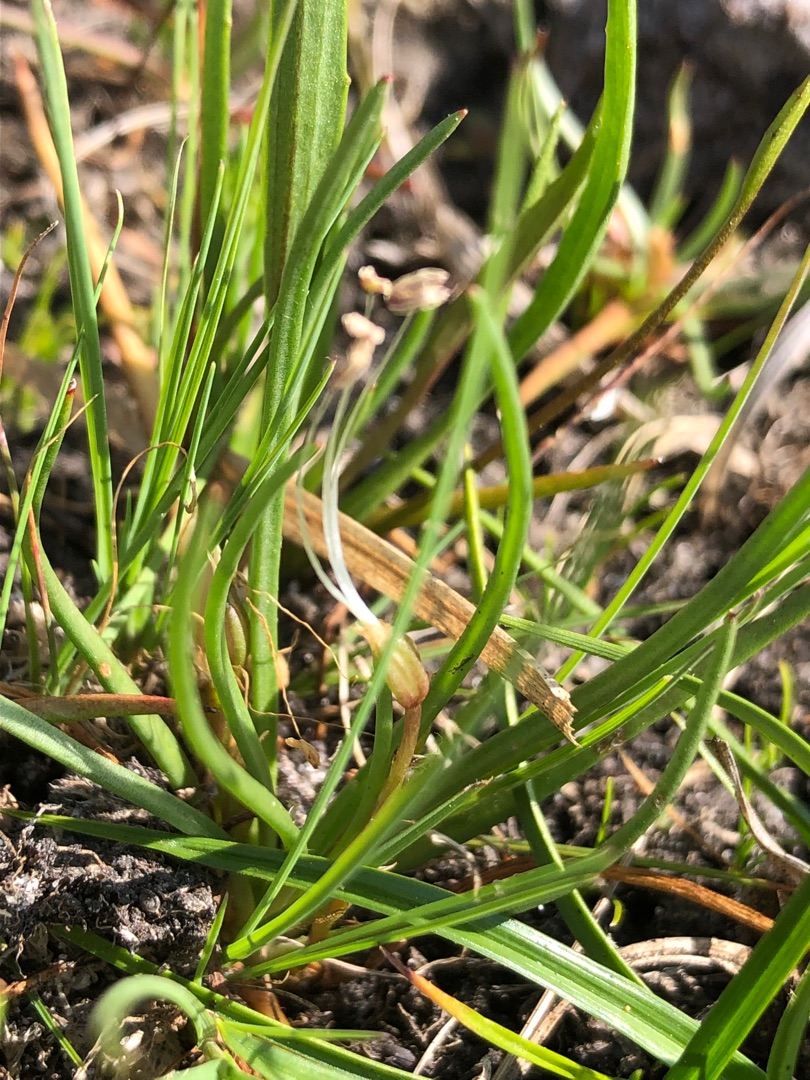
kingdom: Plantae
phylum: Tracheophyta
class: Magnoliopsida
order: Lamiales
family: Plantaginaceae
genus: Littorella
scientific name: Littorella uniflora
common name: Strandbo
